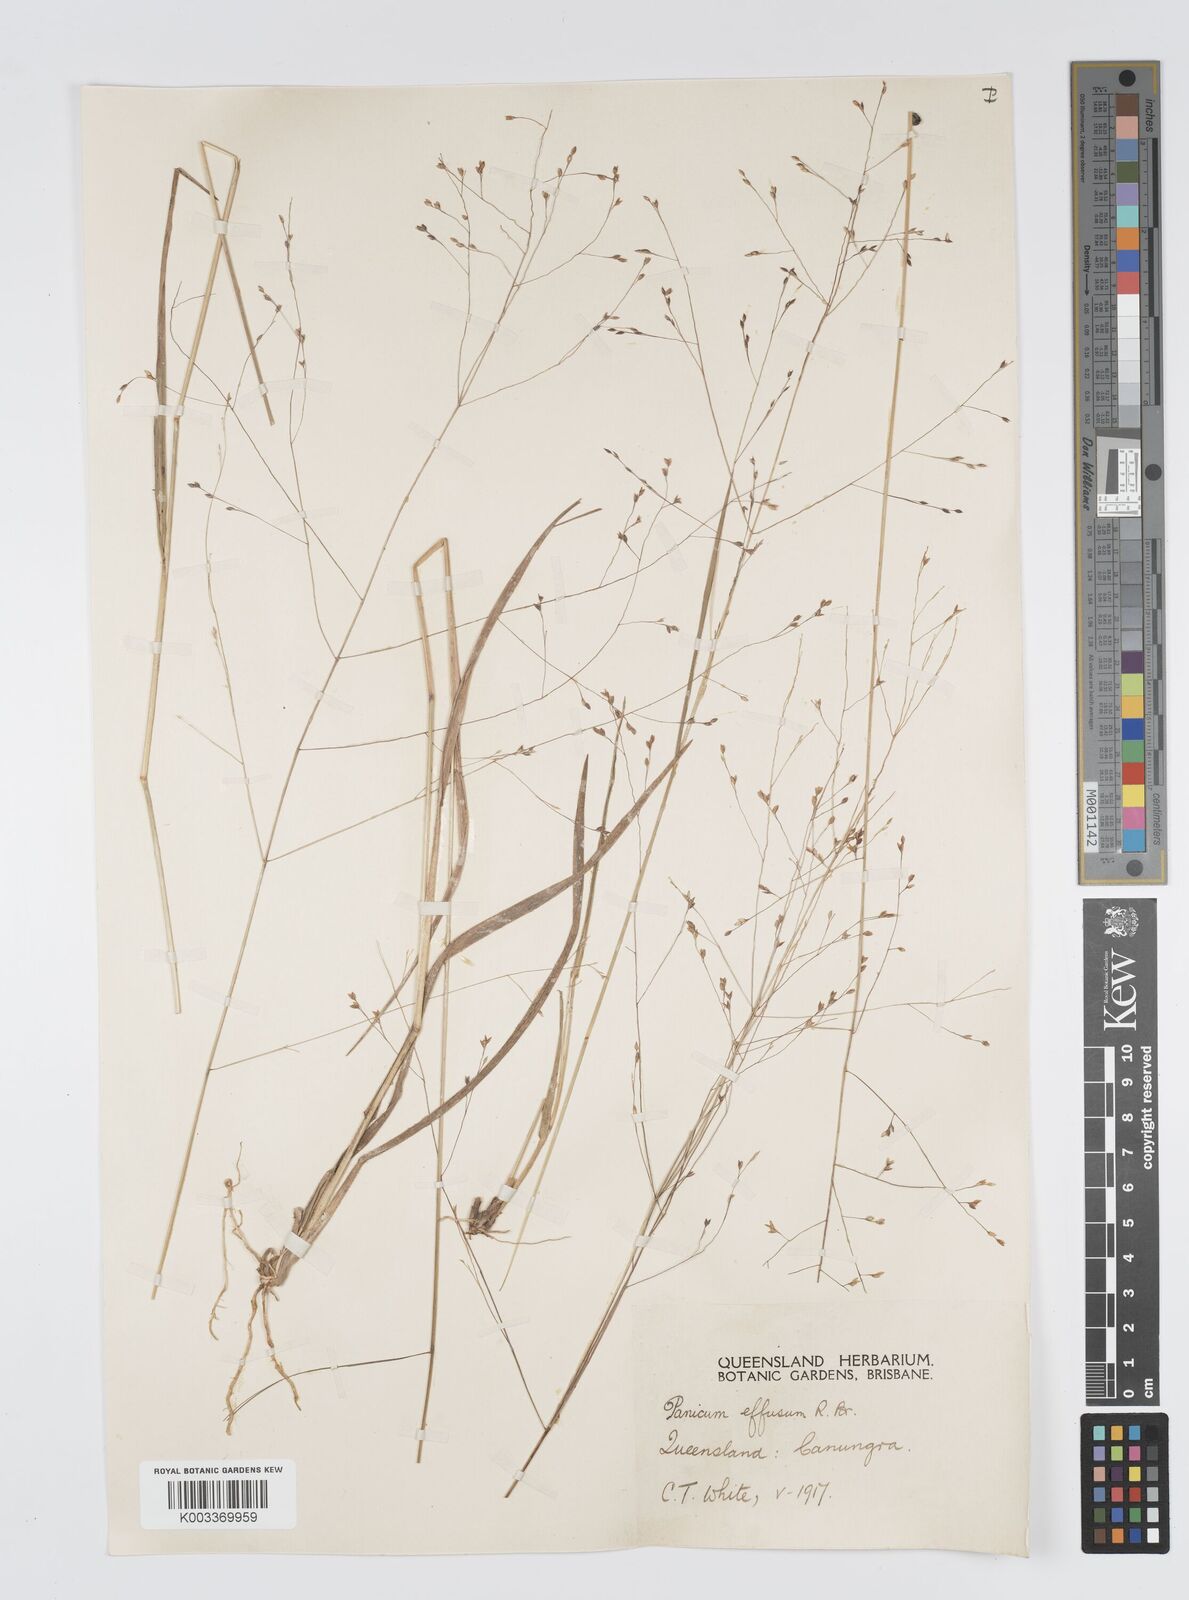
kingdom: Plantae
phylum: Tracheophyta
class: Liliopsida
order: Poales
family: Poaceae
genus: Panicum
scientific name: Panicum effusum
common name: Hairy panic grass
